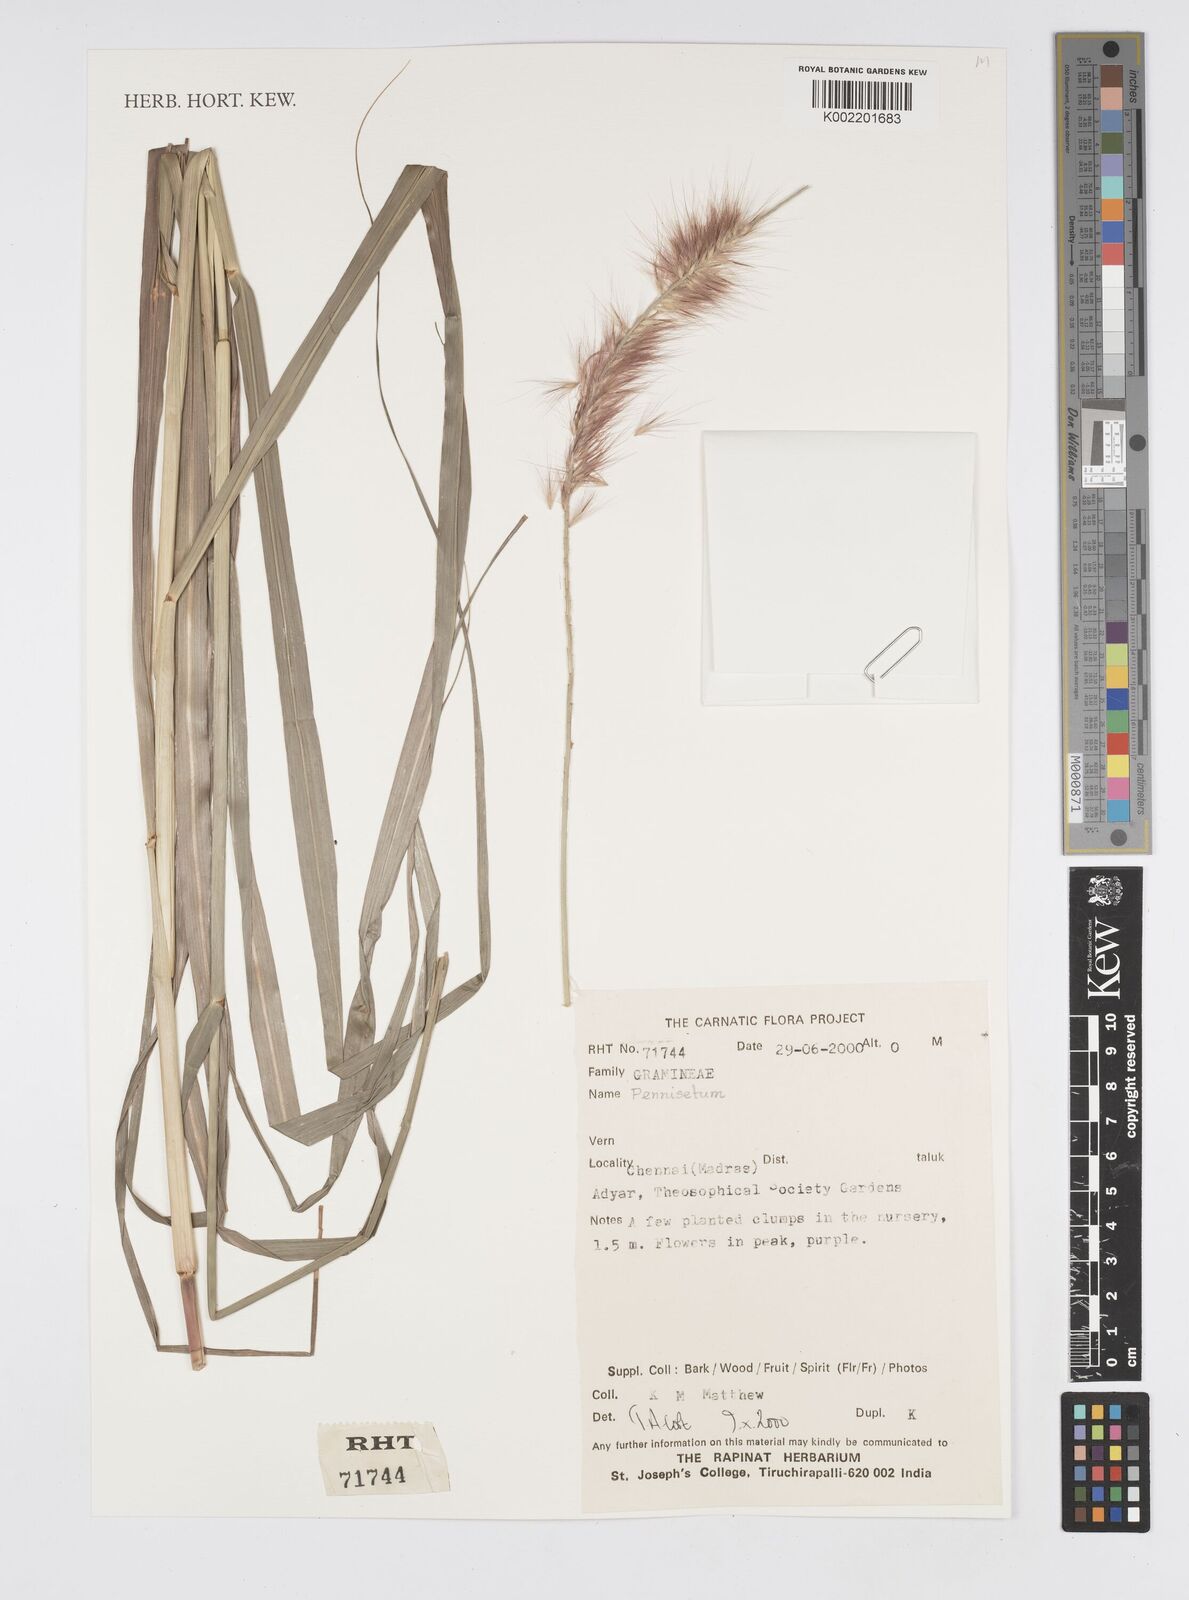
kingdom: Plantae
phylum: Tracheophyta
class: Liliopsida
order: Poales
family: Poaceae
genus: Cenchrus
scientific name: Cenchrus purpureus
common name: Elephant grass
